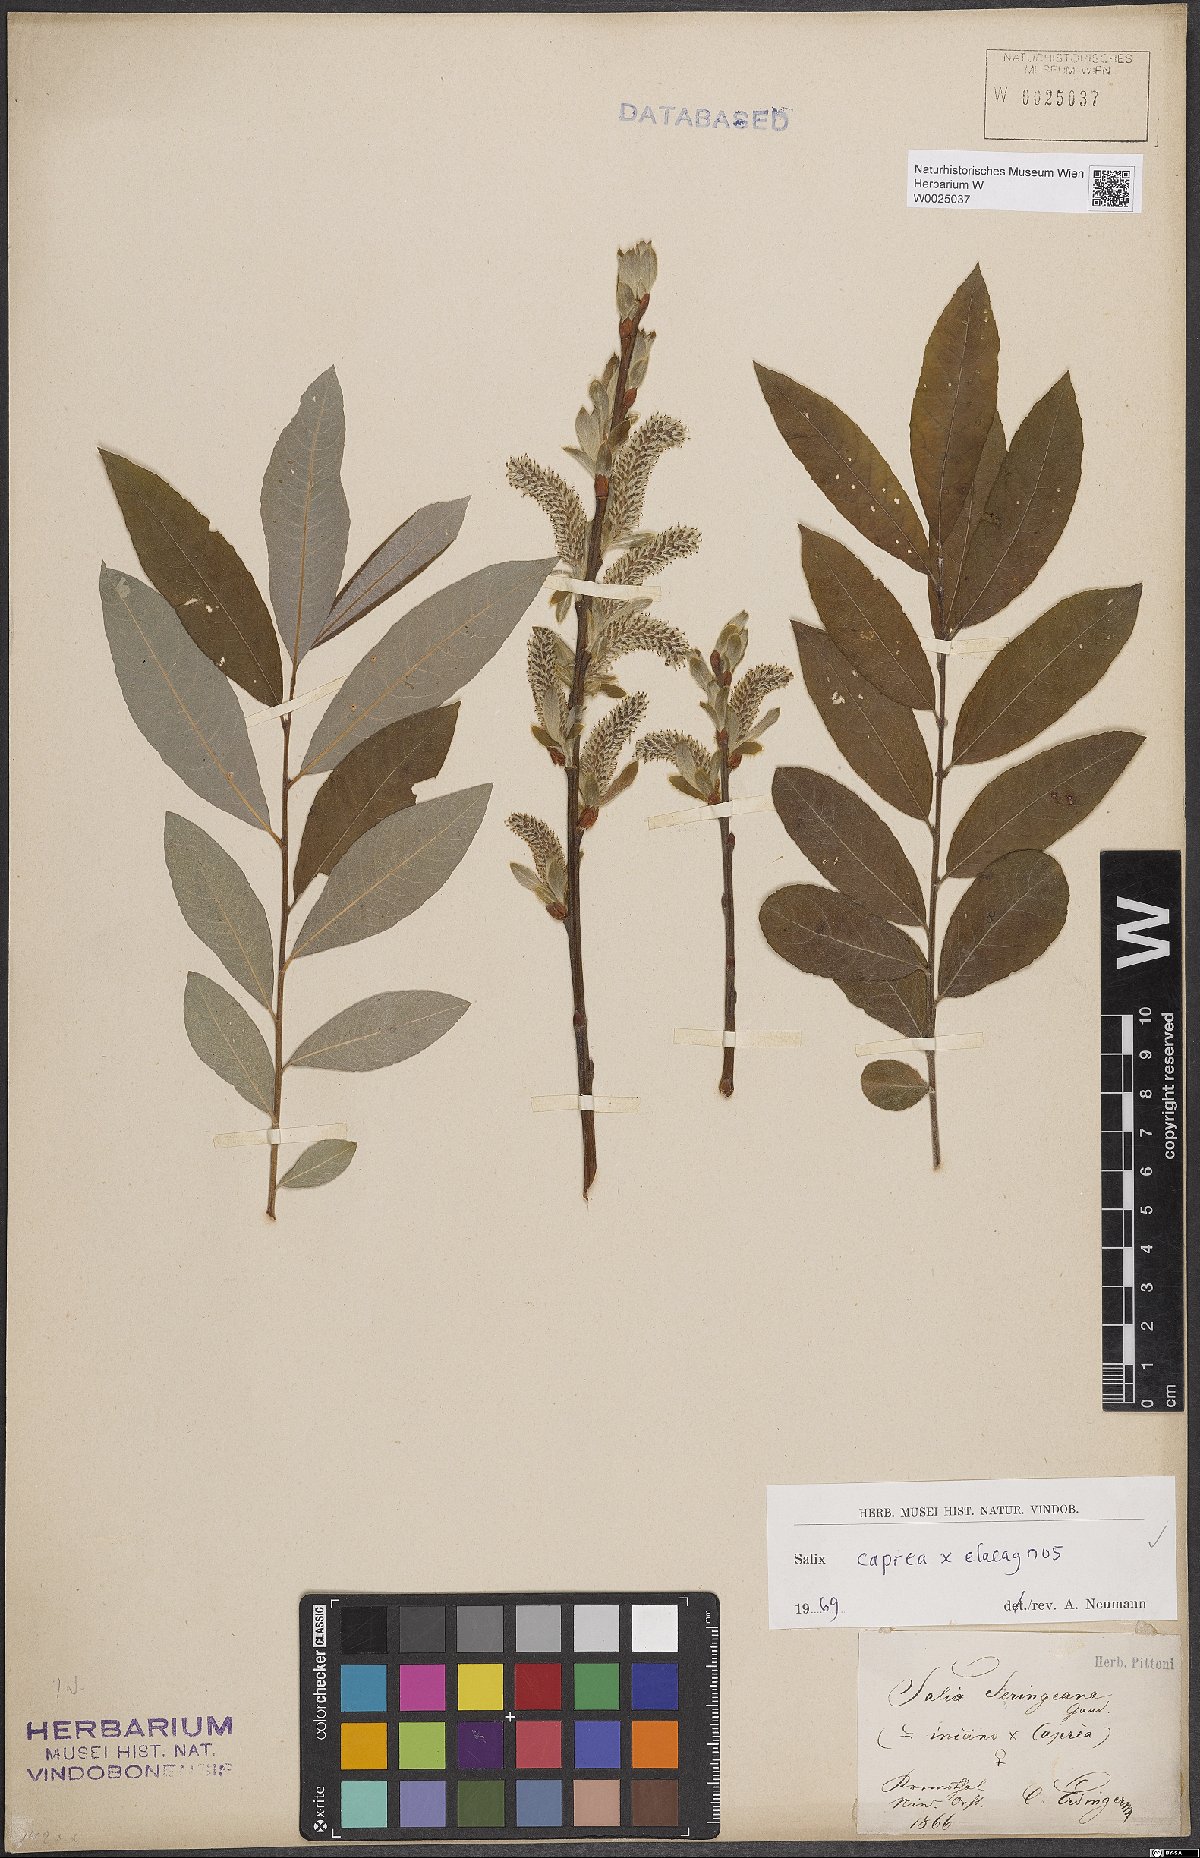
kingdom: Plantae
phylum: Tracheophyta
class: Magnoliopsida
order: Malpighiales
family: Salicaceae
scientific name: Salicaceae
